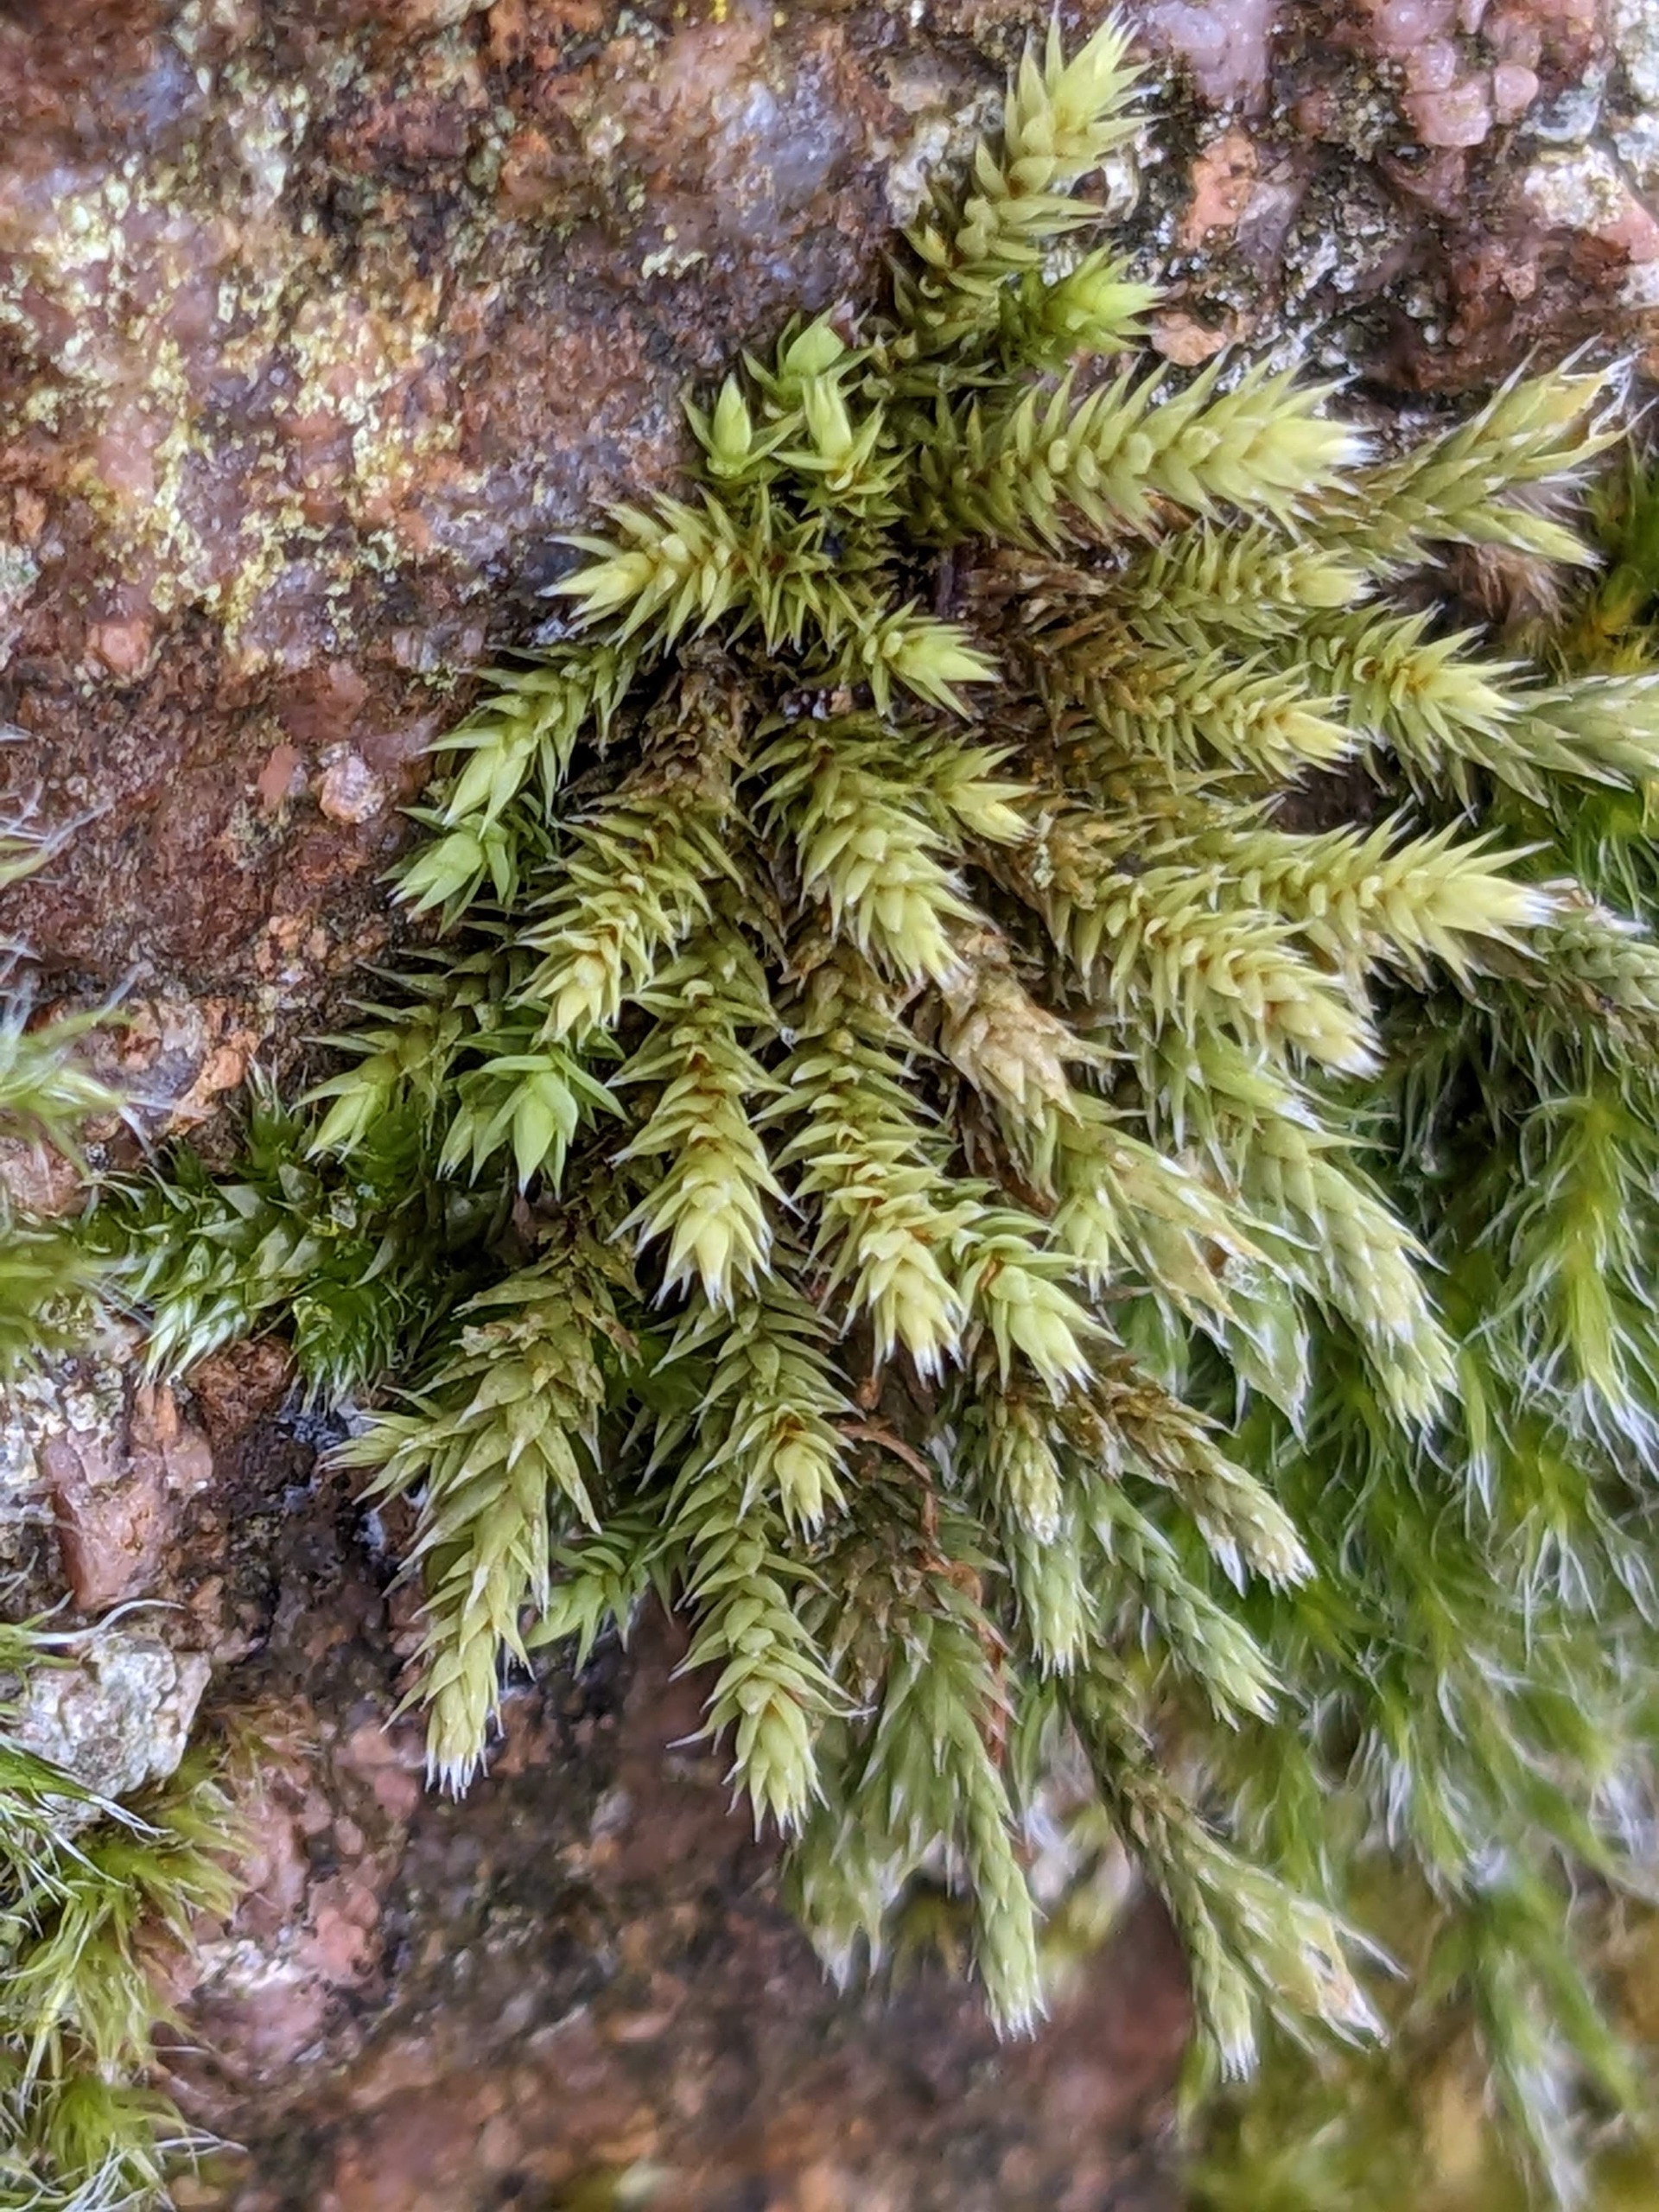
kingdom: Plantae
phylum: Bryophyta
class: Bryopsida
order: Hedwigiales
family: Hedwigiaceae
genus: Hedwigia
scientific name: Hedwigia ciliata
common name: Hvidspidset hedwigia
